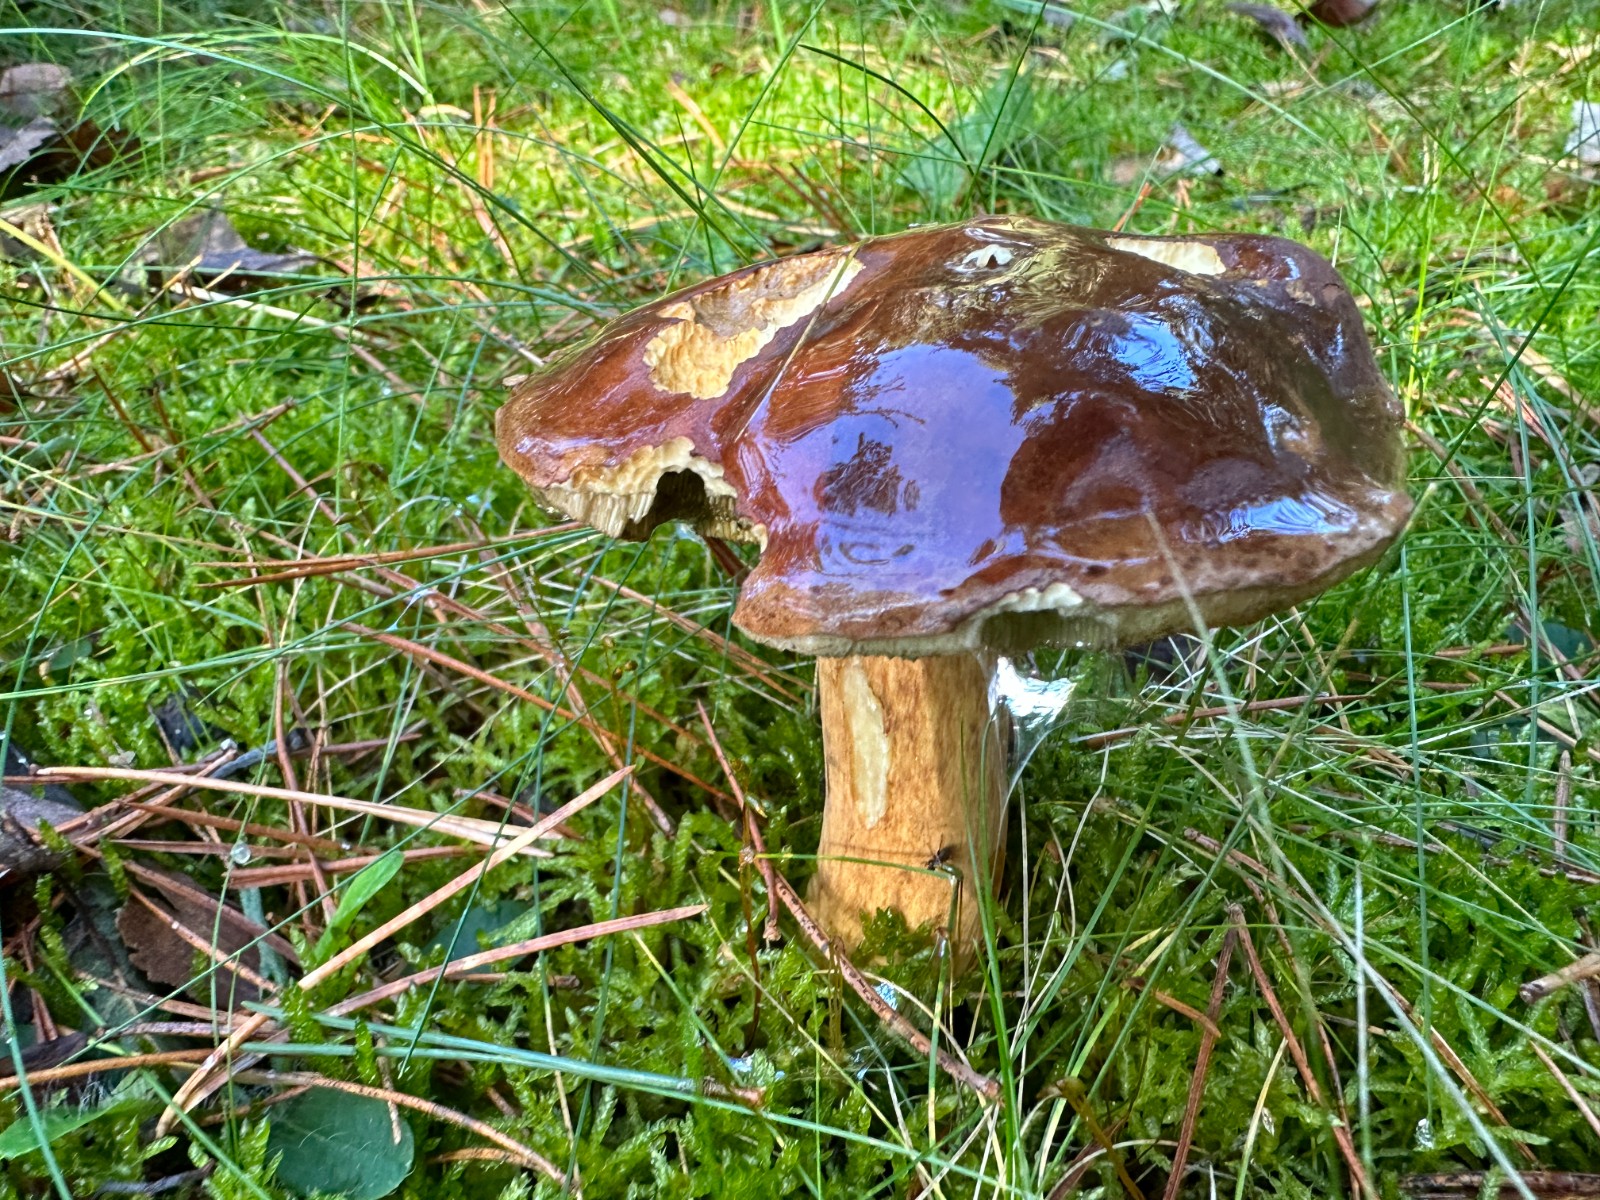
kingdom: Fungi
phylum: Basidiomycota
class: Agaricomycetes
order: Boletales
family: Boletaceae
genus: Imleria
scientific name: Imleria badia
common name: brunstokket rørhat
